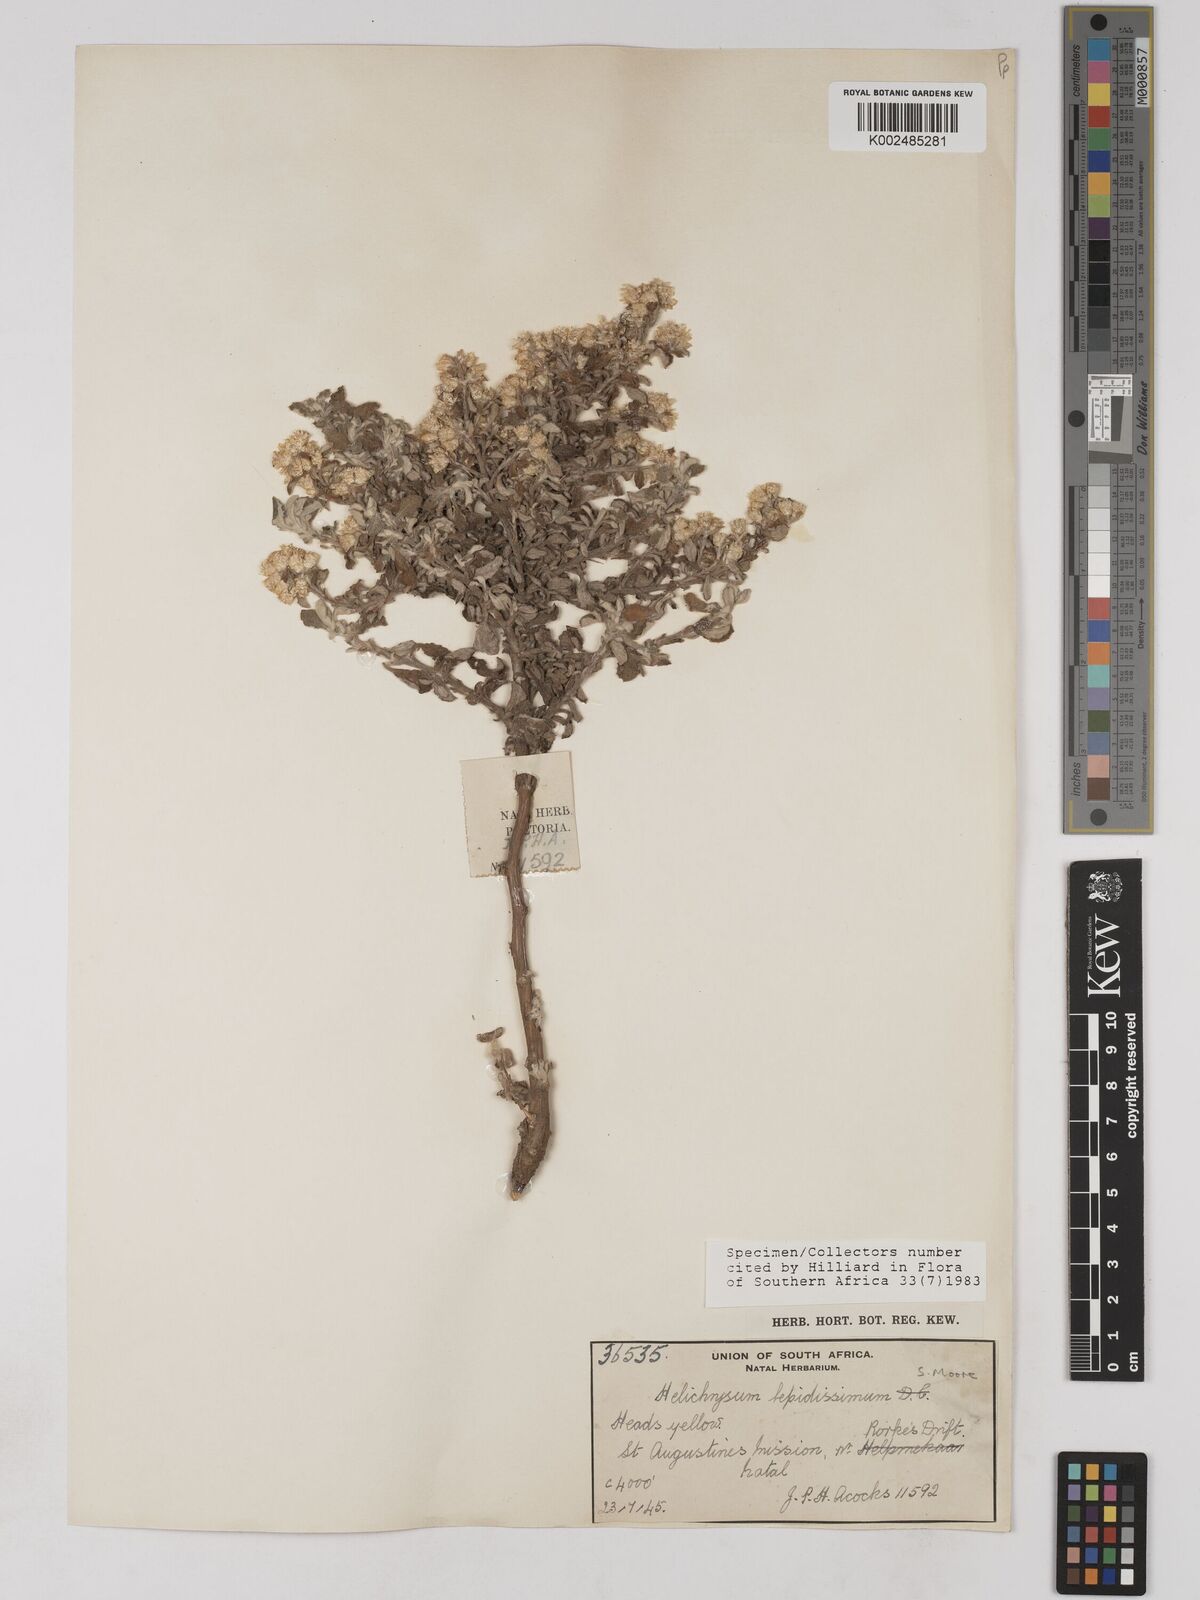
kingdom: Plantae
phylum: Tracheophyta
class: Magnoliopsida
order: Asterales
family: Asteraceae
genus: Helichrysum
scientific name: Helichrysum lepidissimum
